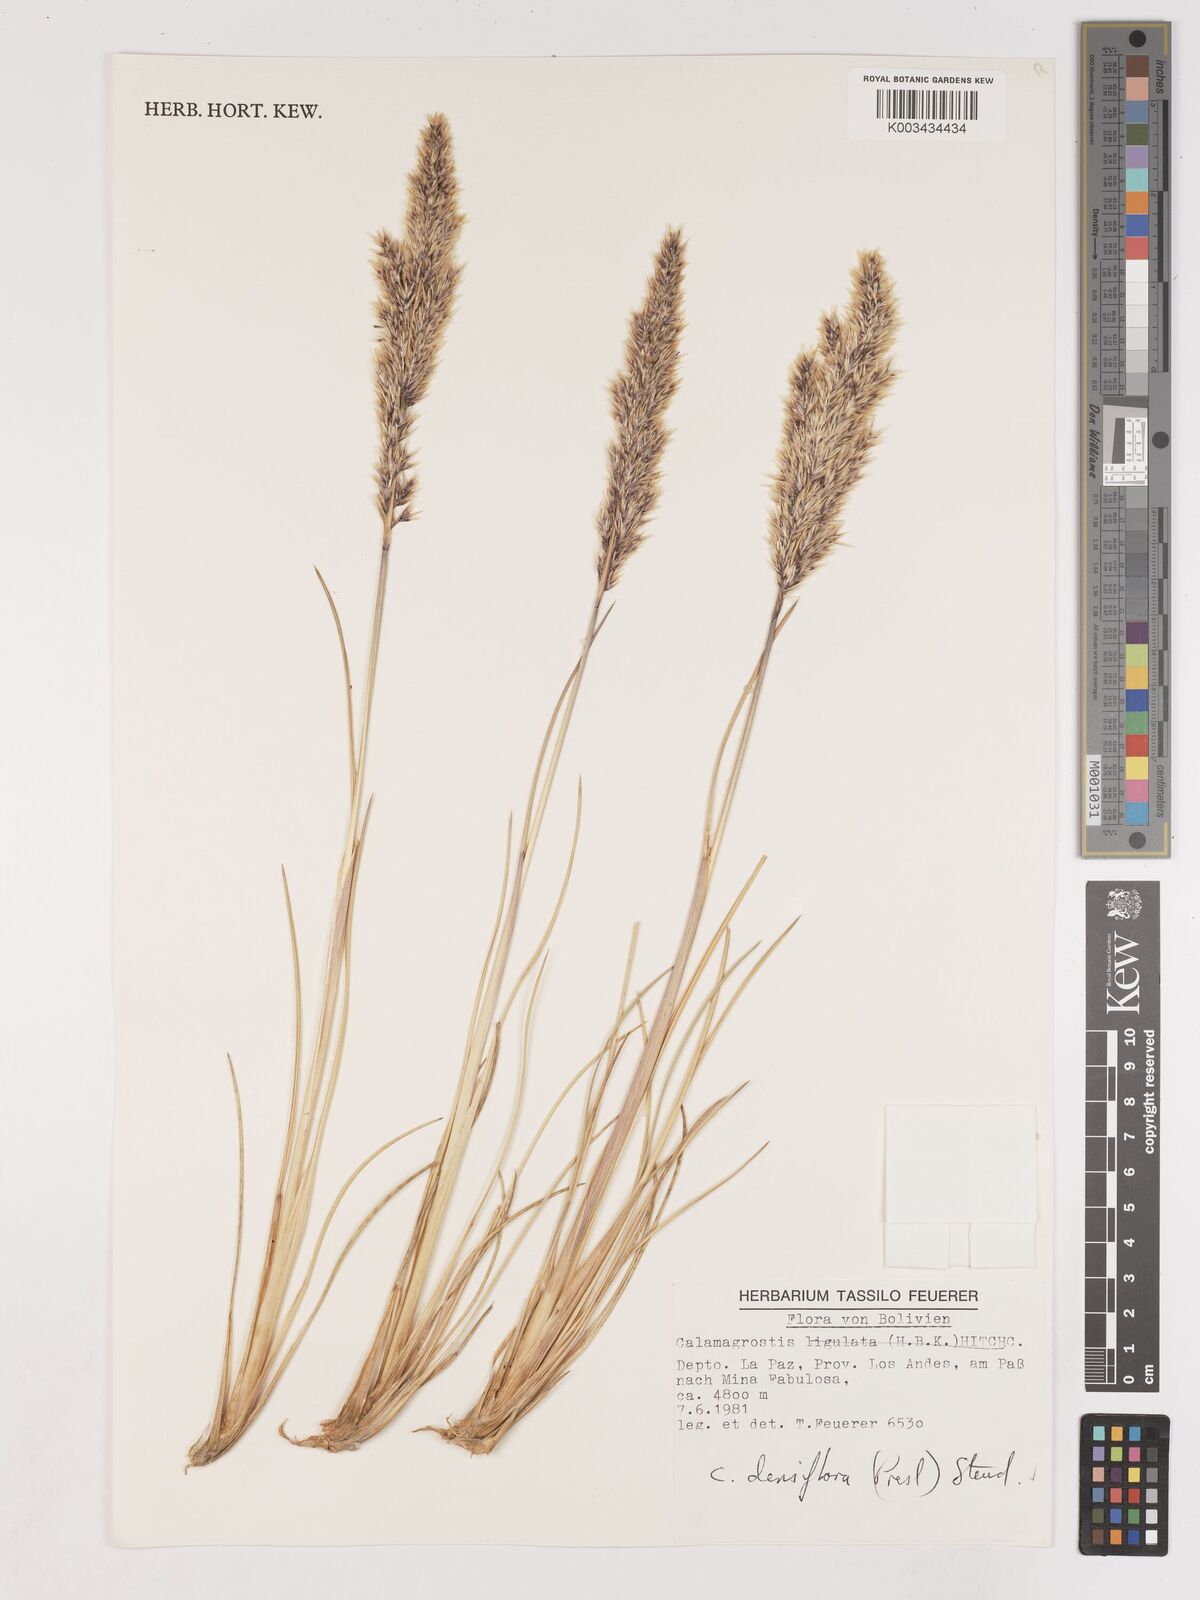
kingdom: Plantae
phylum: Tracheophyta
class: Liliopsida
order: Poales
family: Poaceae
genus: Cinnagrostis
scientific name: Cinnagrostis densiflora
